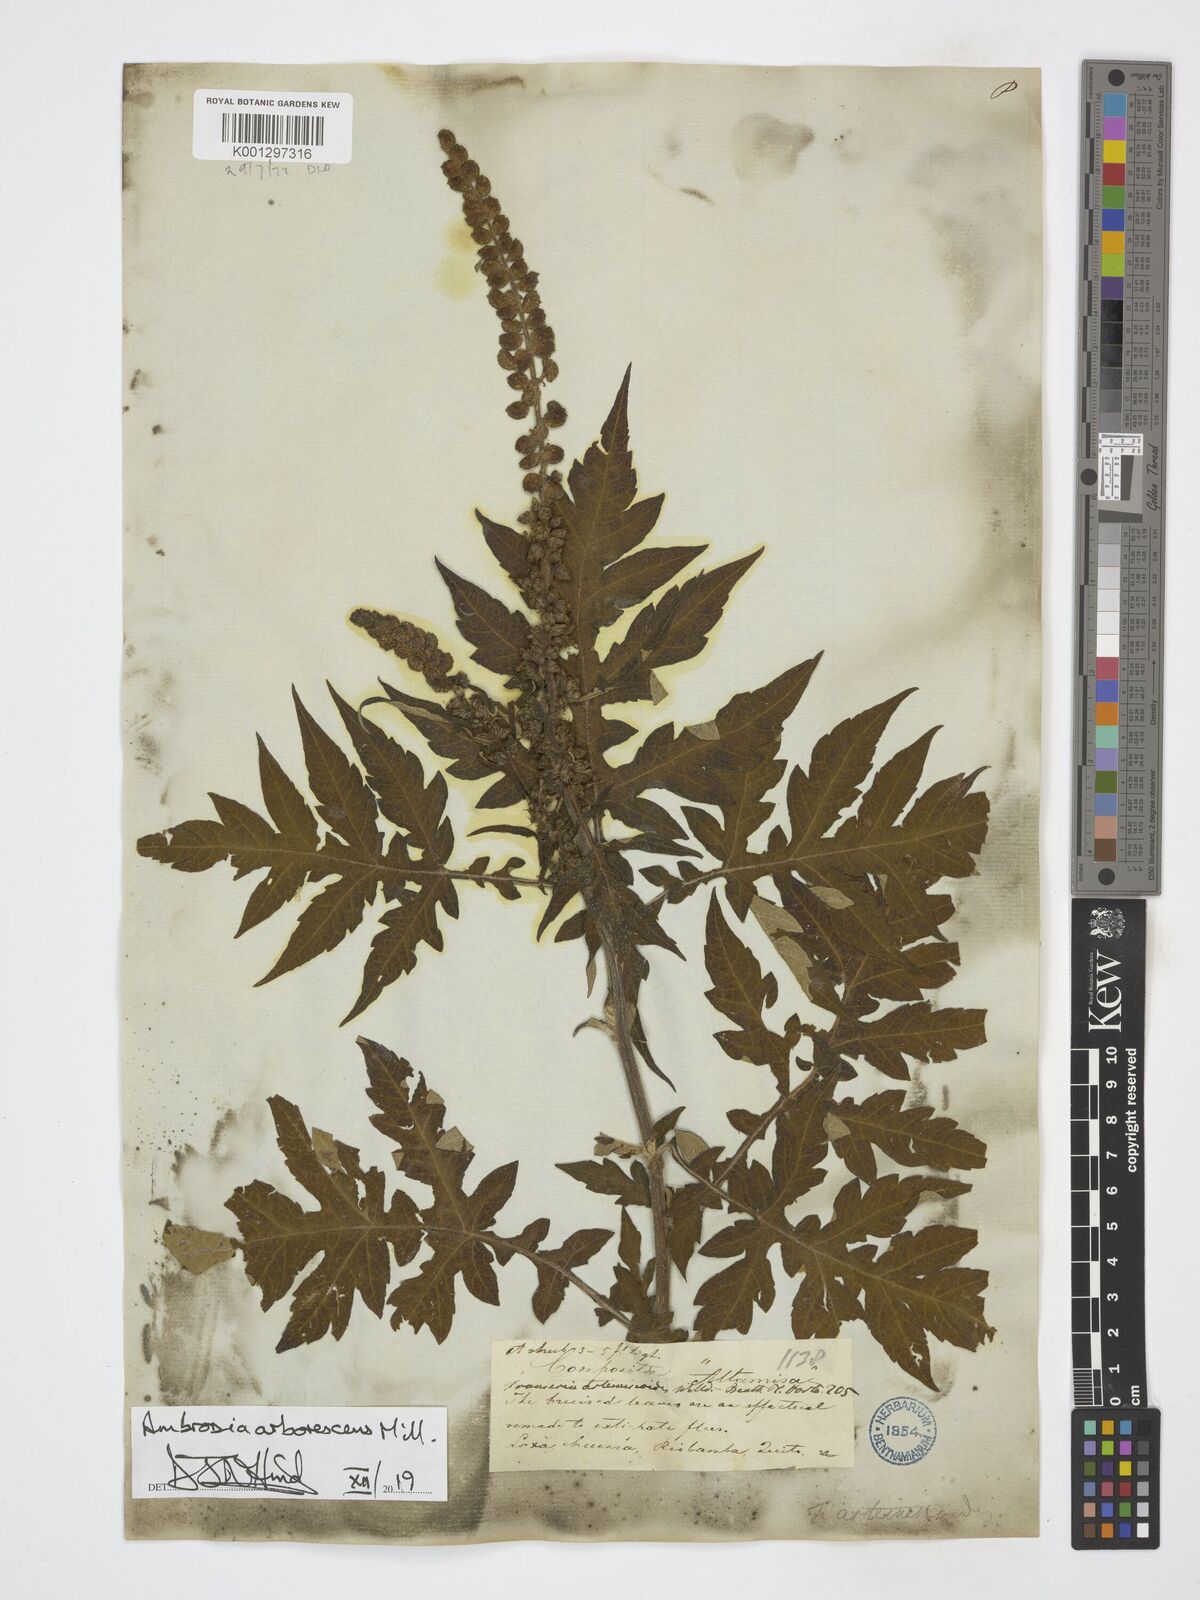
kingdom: Plantae
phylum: Tracheophyta
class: Magnoliopsida
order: Asterales
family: Asteraceae
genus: Ambrosia
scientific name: Ambrosia arborescens
